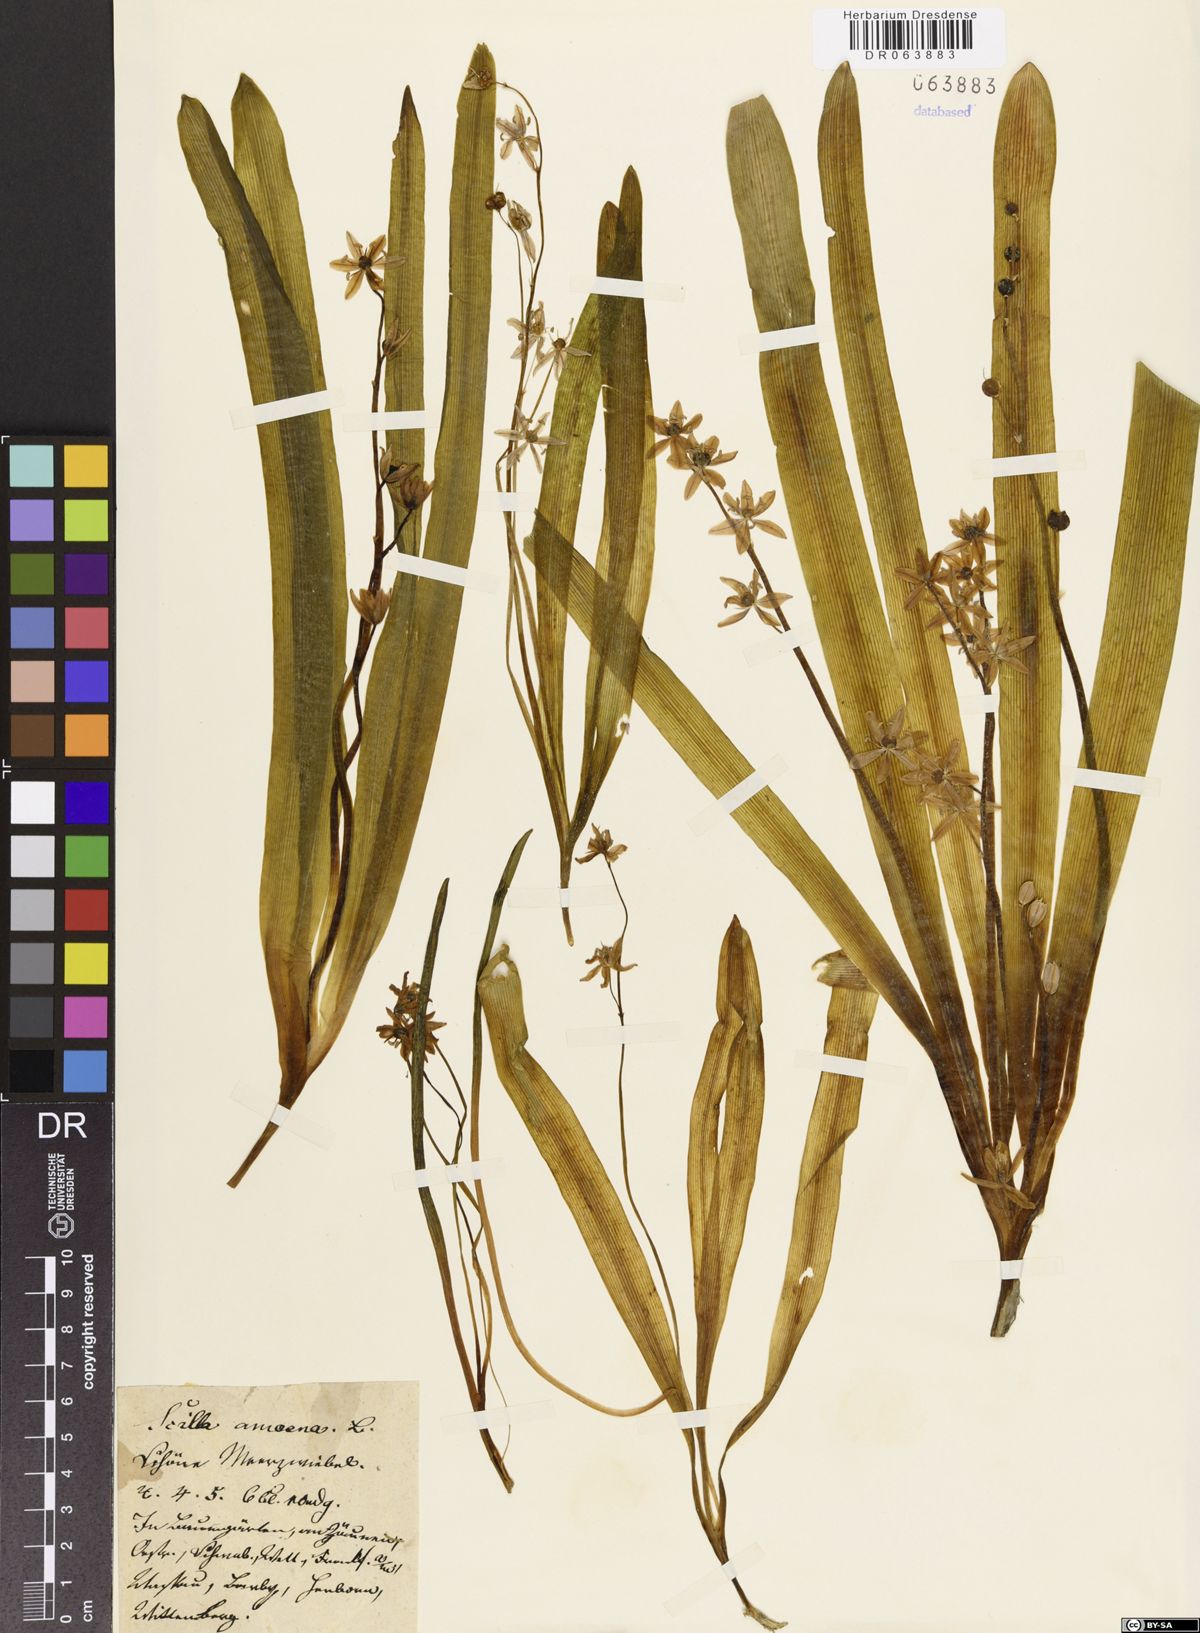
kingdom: Plantae
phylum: Tracheophyta
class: Liliopsida
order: Asparagales
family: Asparagaceae
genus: Scilla
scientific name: Scilla amoena
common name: Star-hyacinth
